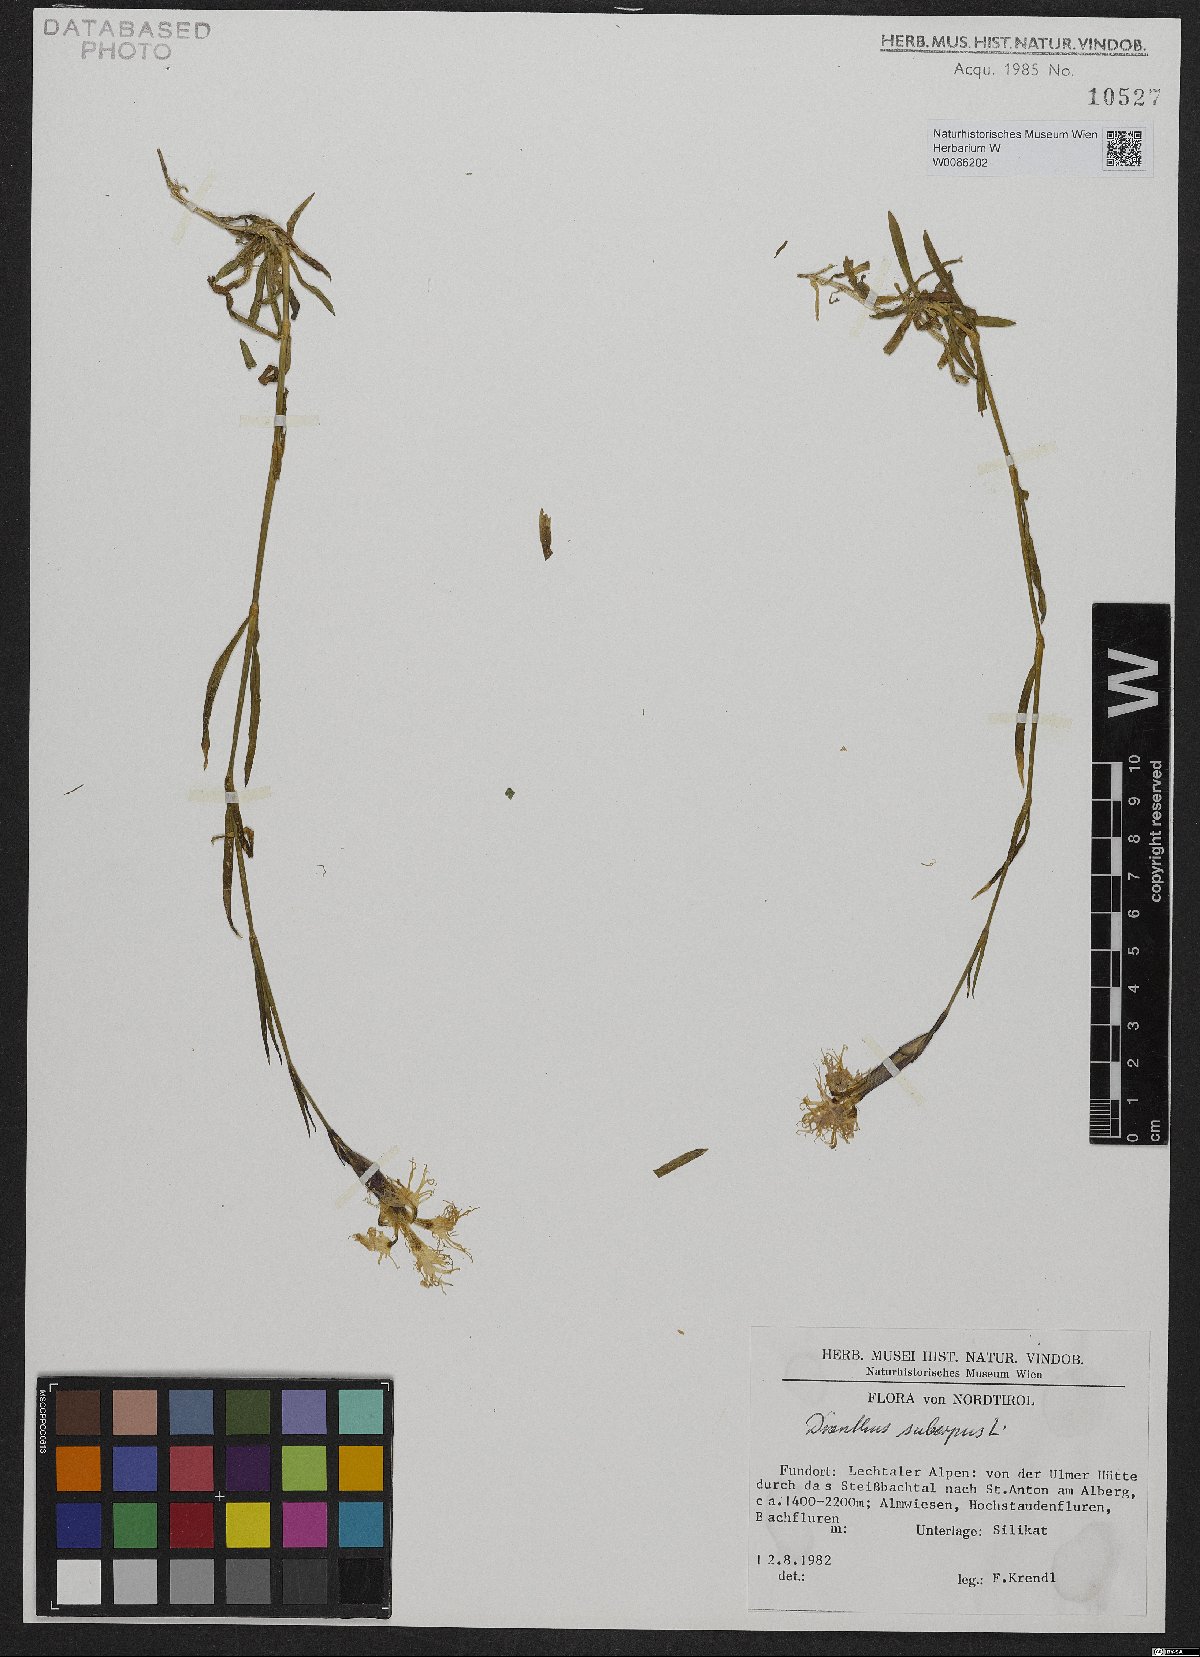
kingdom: Plantae
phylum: Tracheophyta
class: Magnoliopsida
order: Caryophyllales
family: Caryophyllaceae
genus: Dianthus
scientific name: Dianthus superbus
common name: Fringed pink
